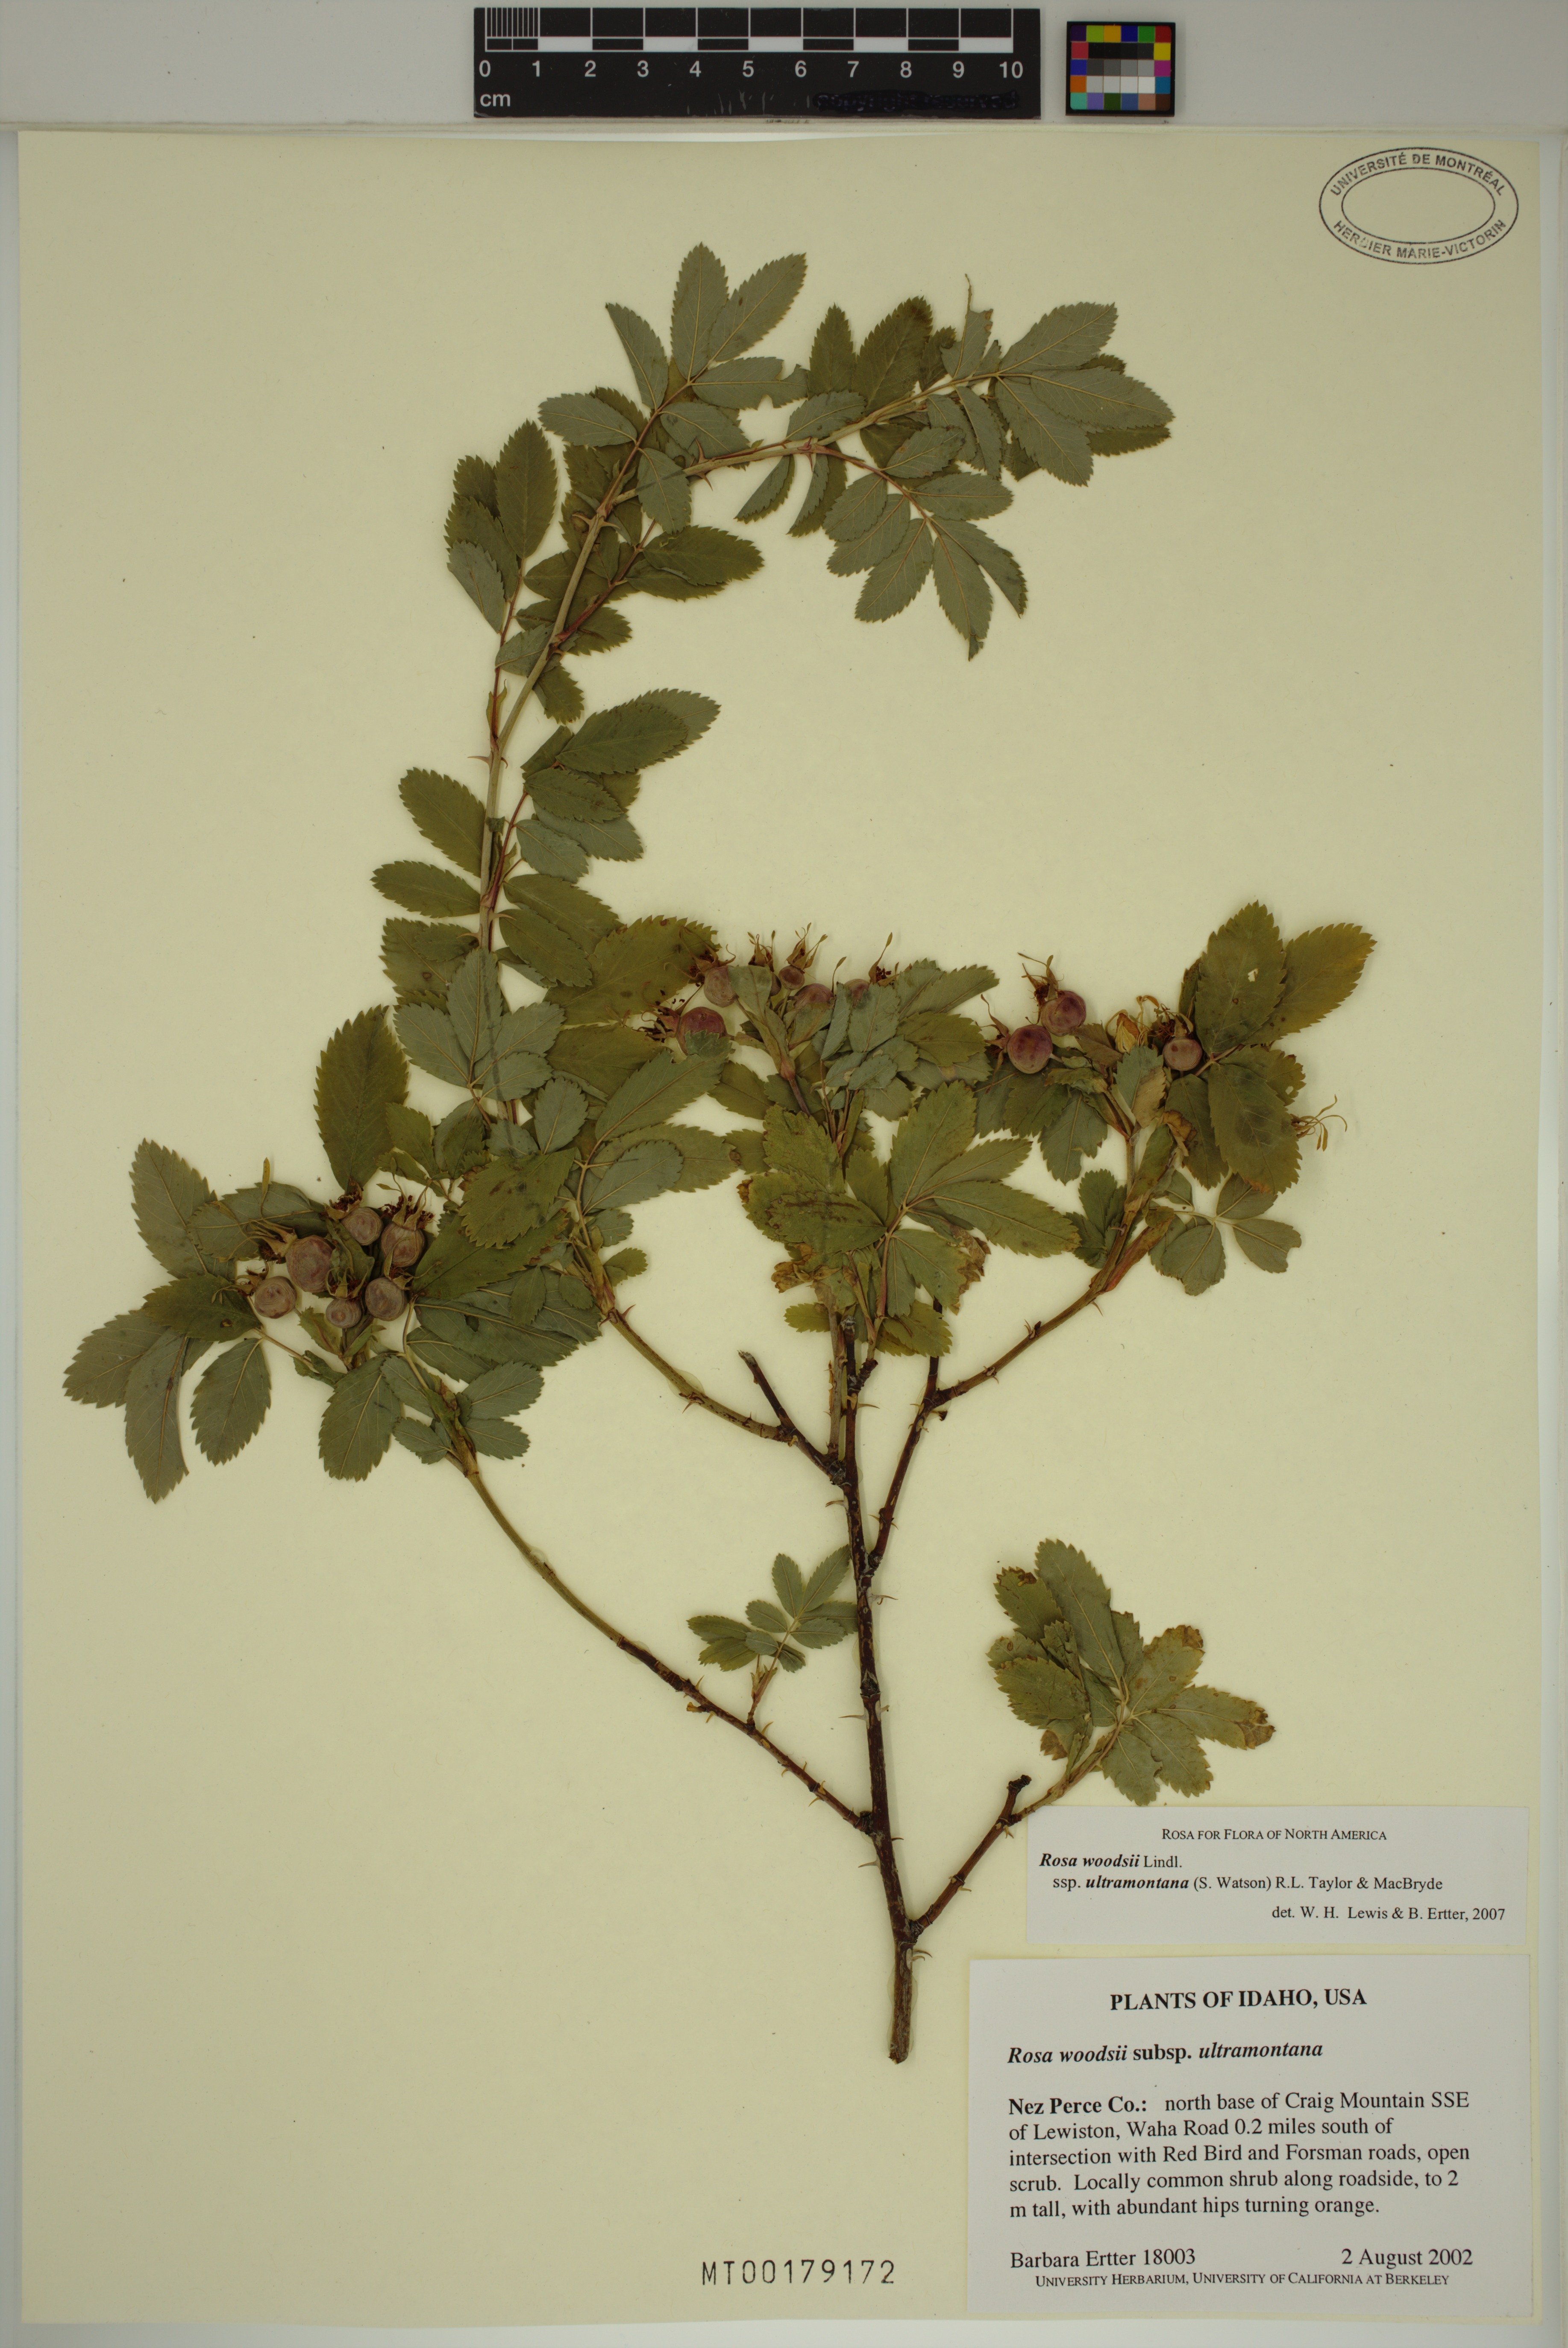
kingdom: Plantae
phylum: Tracheophyta
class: Magnoliopsida
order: Rosales
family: Rosaceae
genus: Rosa
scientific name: Rosa woodsii
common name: Woods's rose
